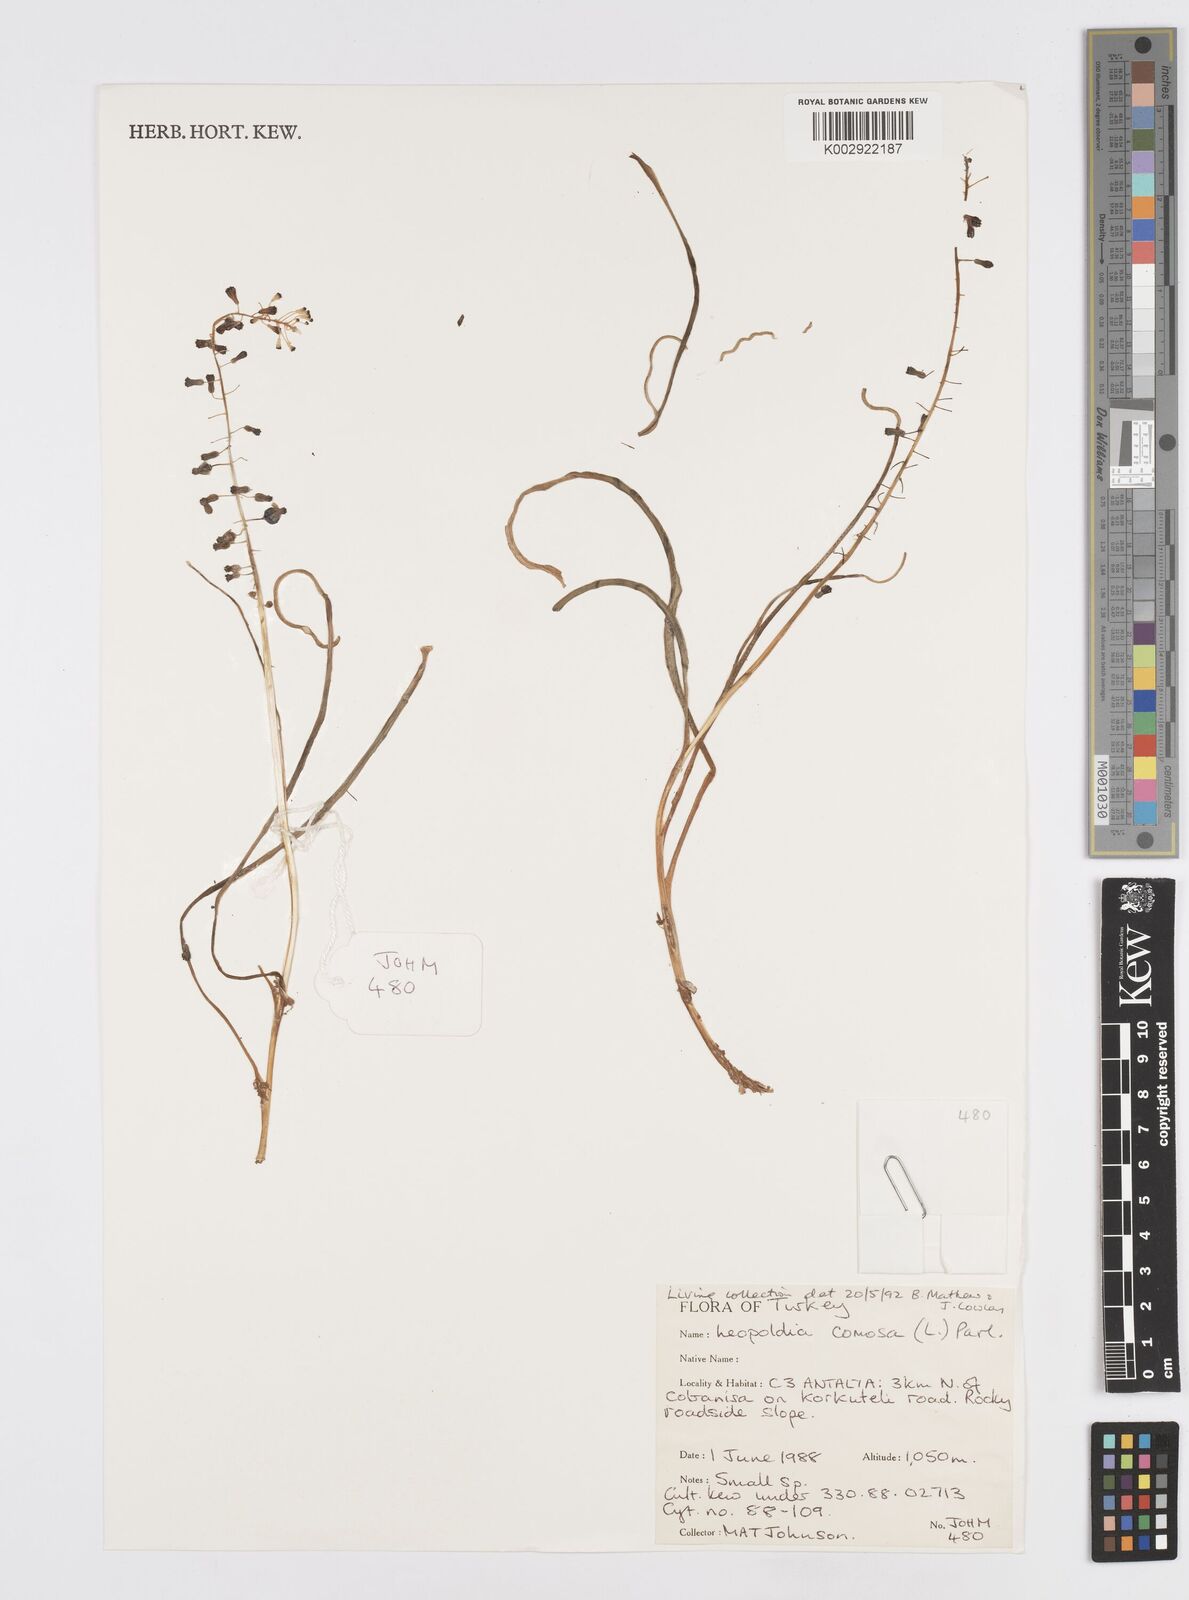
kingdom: Plantae
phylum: Tracheophyta
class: Liliopsida
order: Asparagales
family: Asparagaceae
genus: Muscari
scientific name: Muscari comosum
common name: Tassel hyacinth
